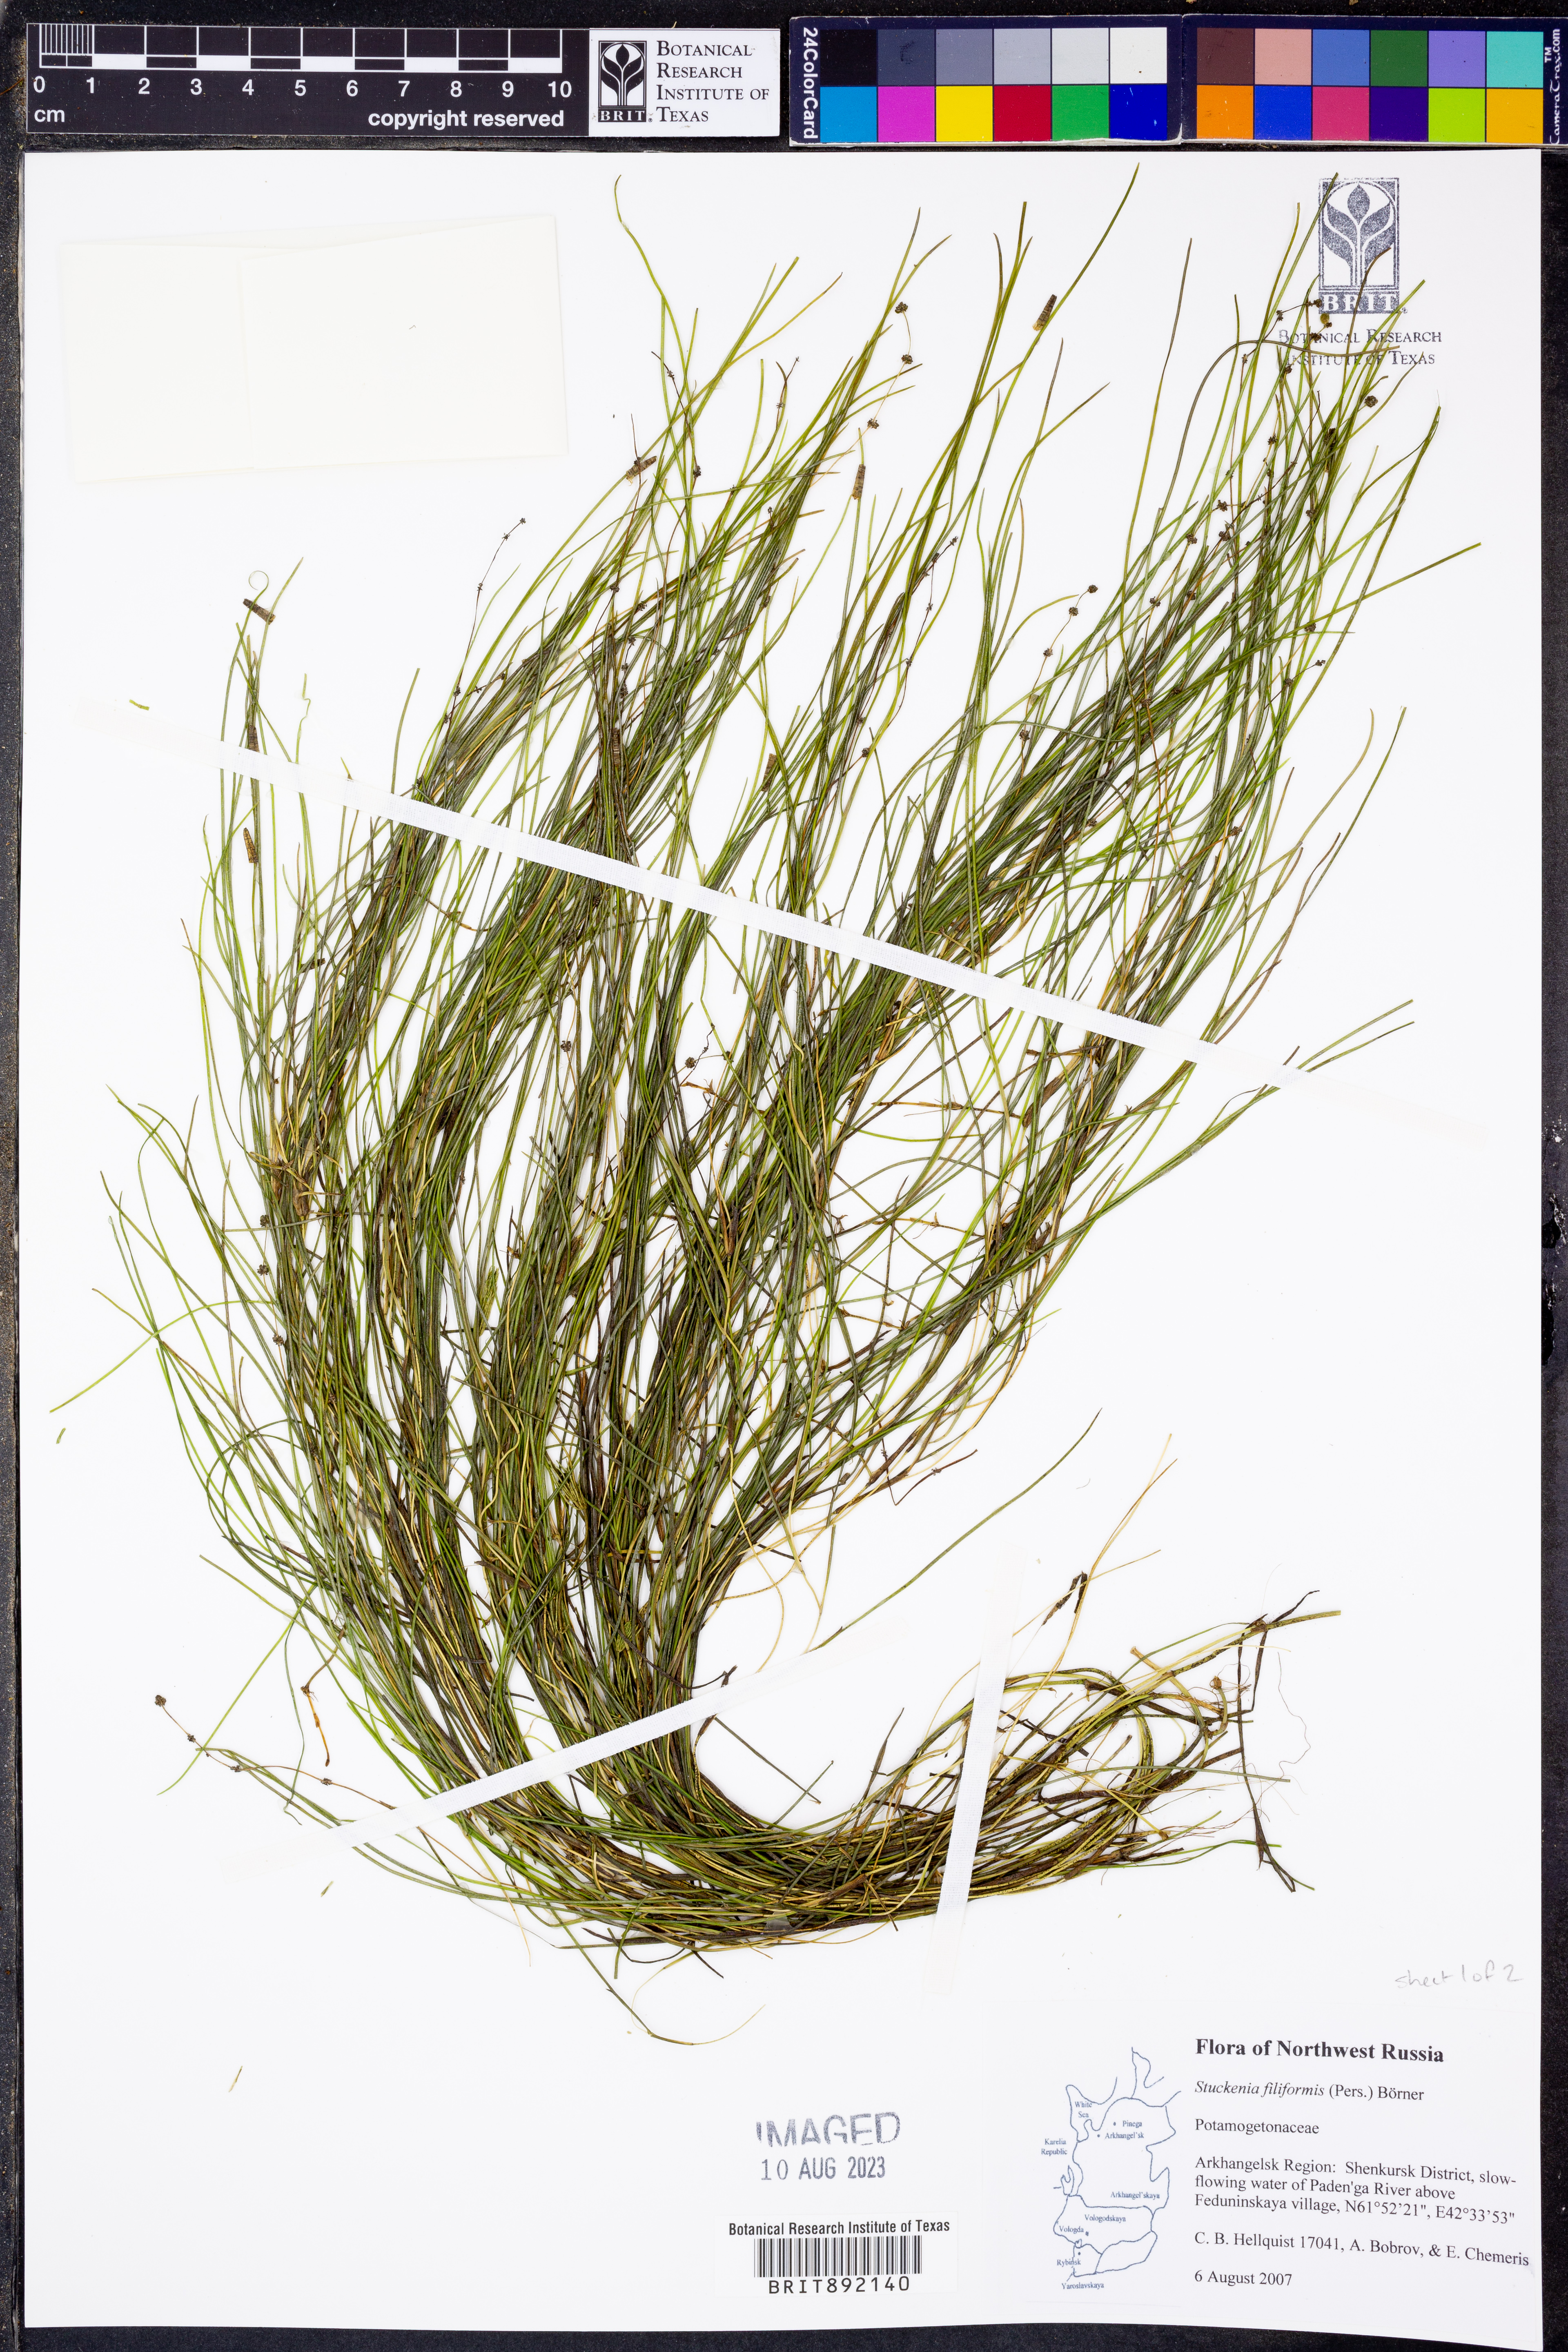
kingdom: Plantae
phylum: Tracheophyta
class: Liliopsida
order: Alismatales
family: Potamogetonaceae
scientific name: Potamogetonaceae
